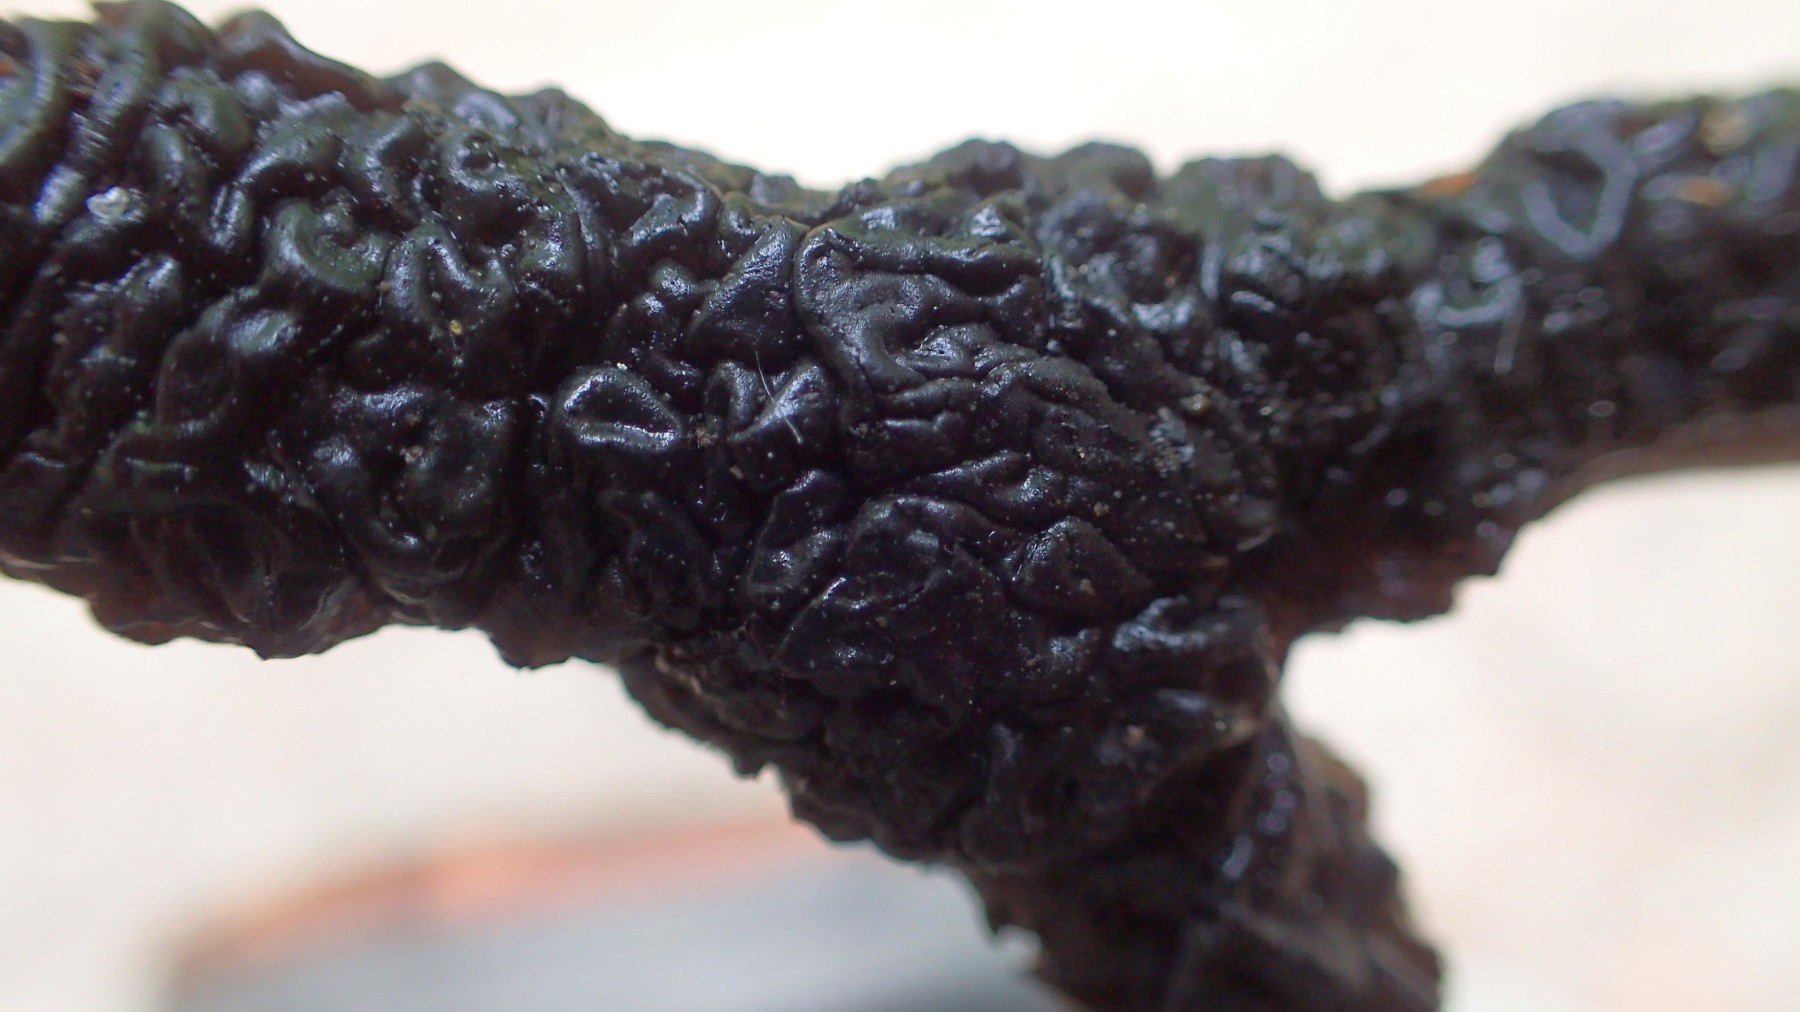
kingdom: Fungi
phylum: Basidiomycota
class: Agaricomycetes
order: Auriculariales
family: Auriculariaceae
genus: Exidia
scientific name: Exidia nigricans
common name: almindelig bævretop
